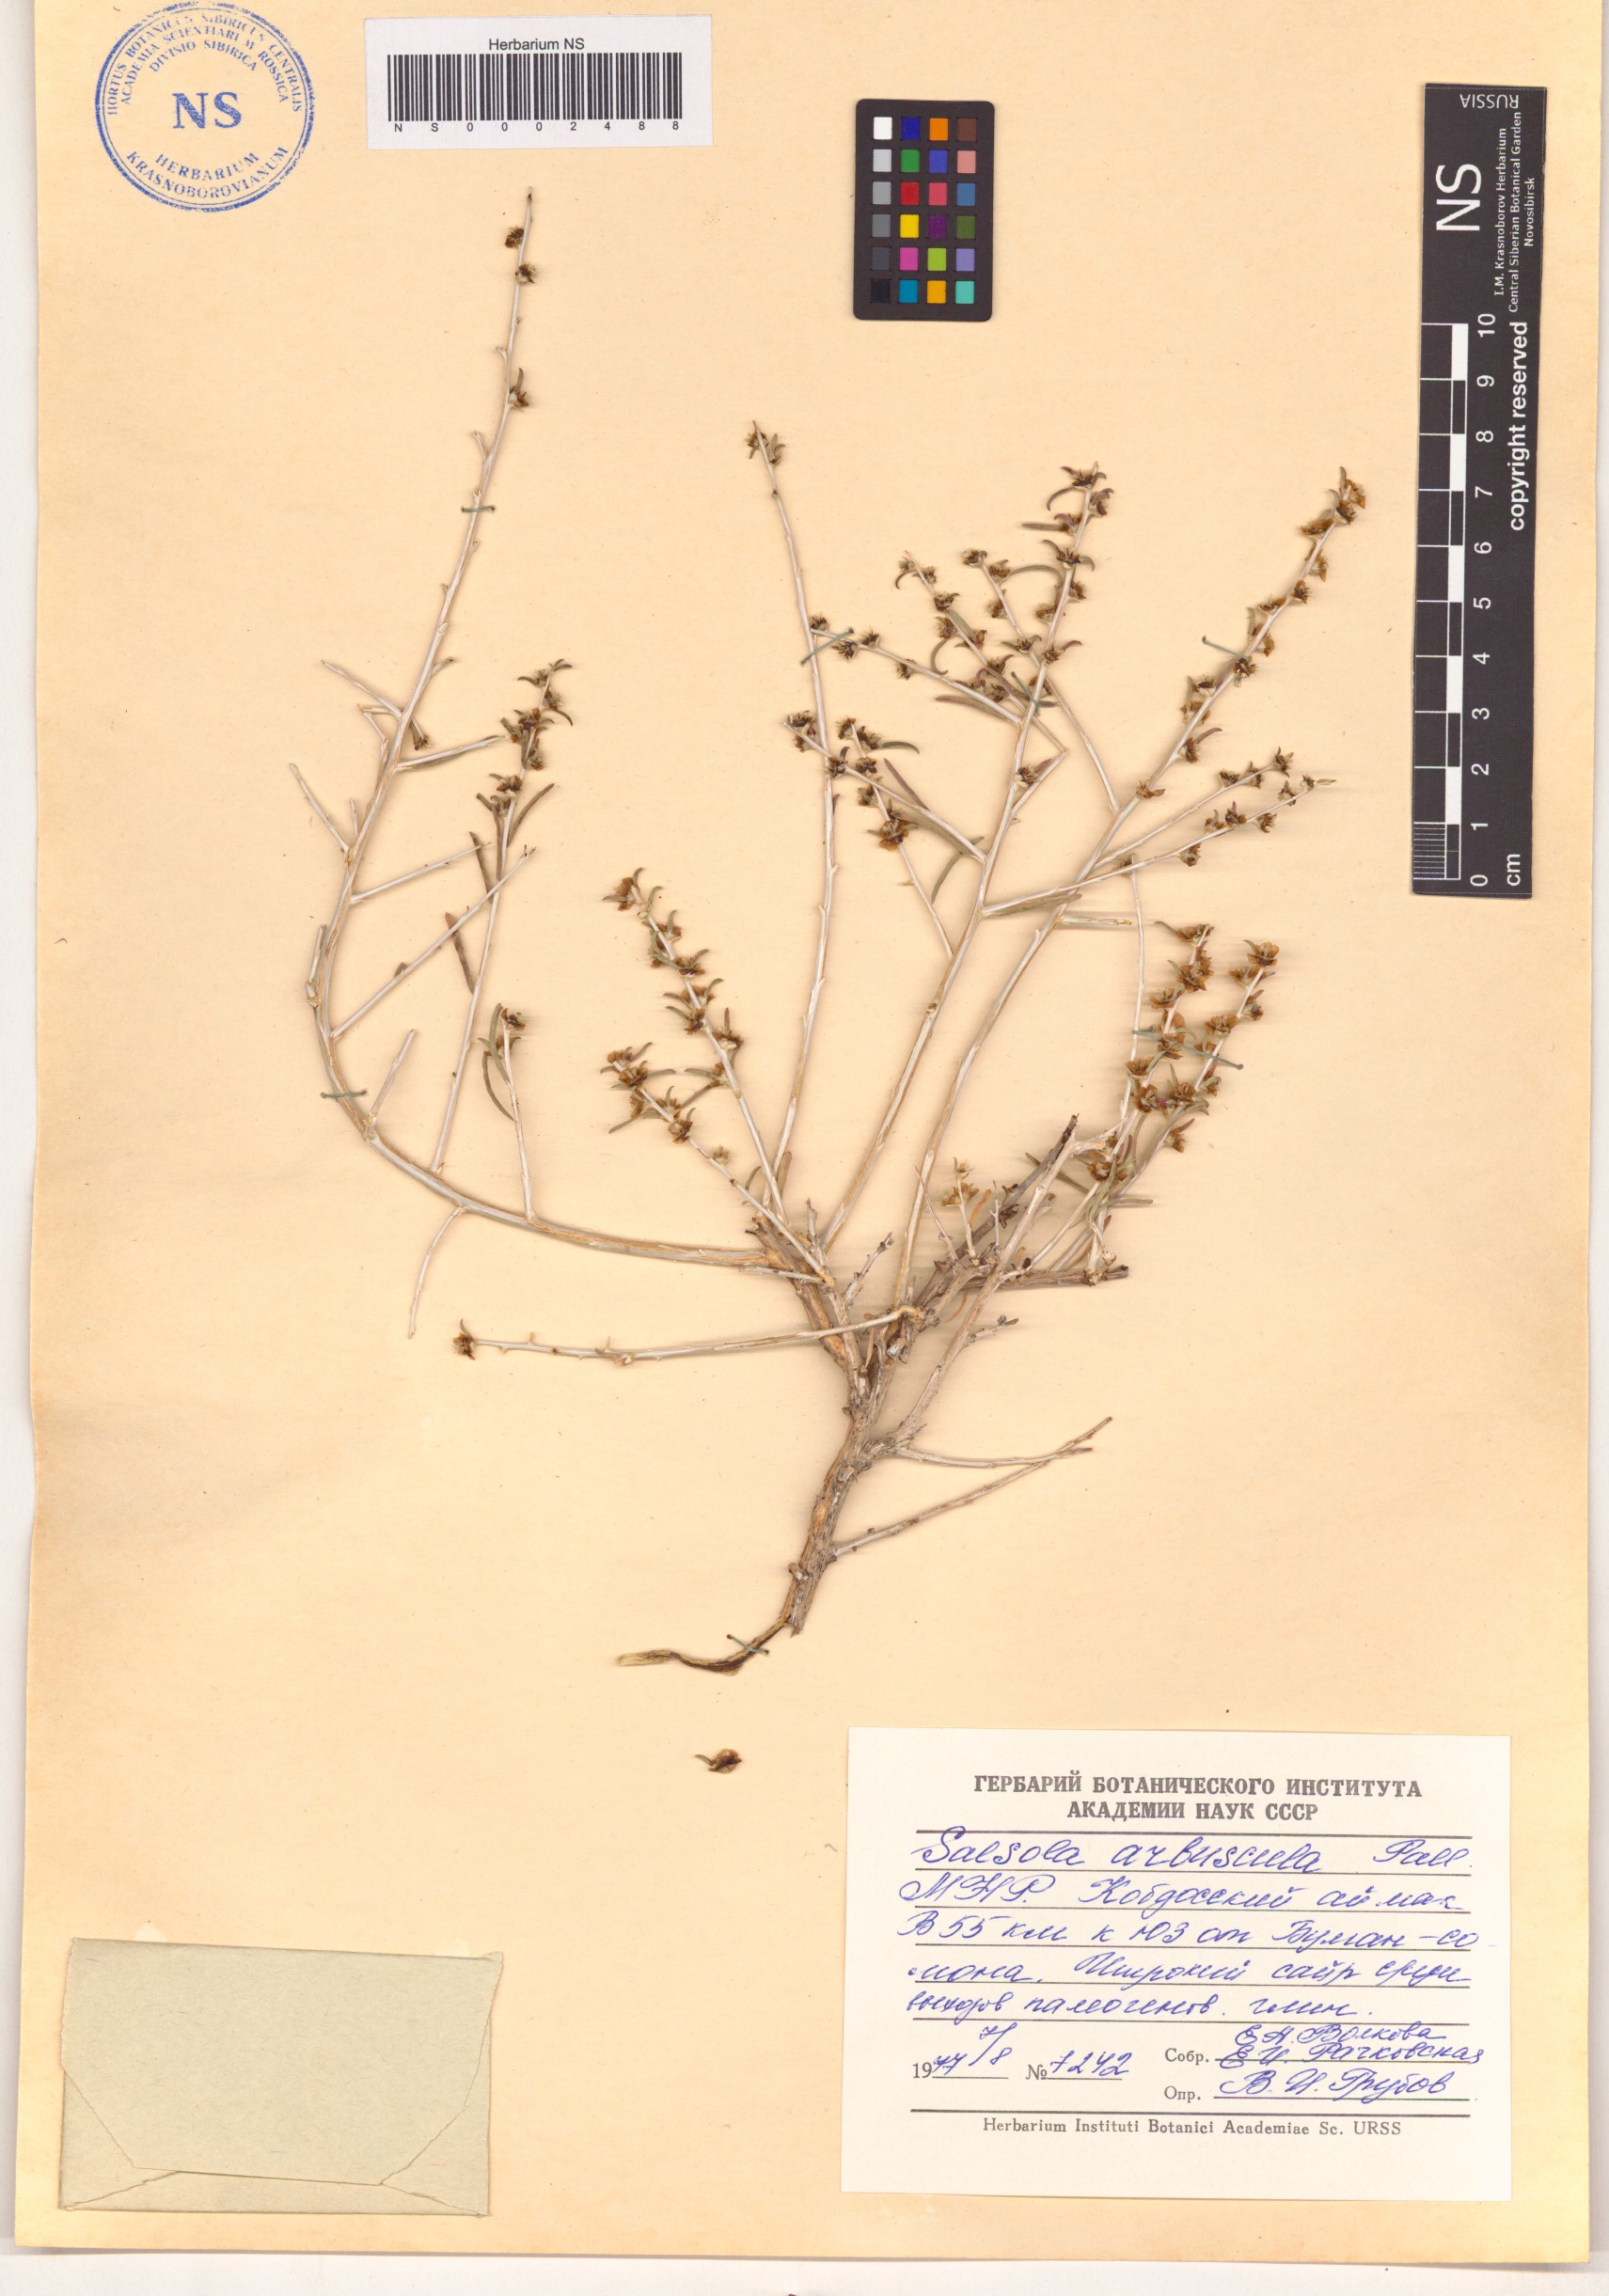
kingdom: Plantae
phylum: Tracheophyta
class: Magnoliopsida
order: Caryophyllales
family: Amaranthaceae
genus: Xylosalsola
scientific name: Xylosalsola arbuscula
